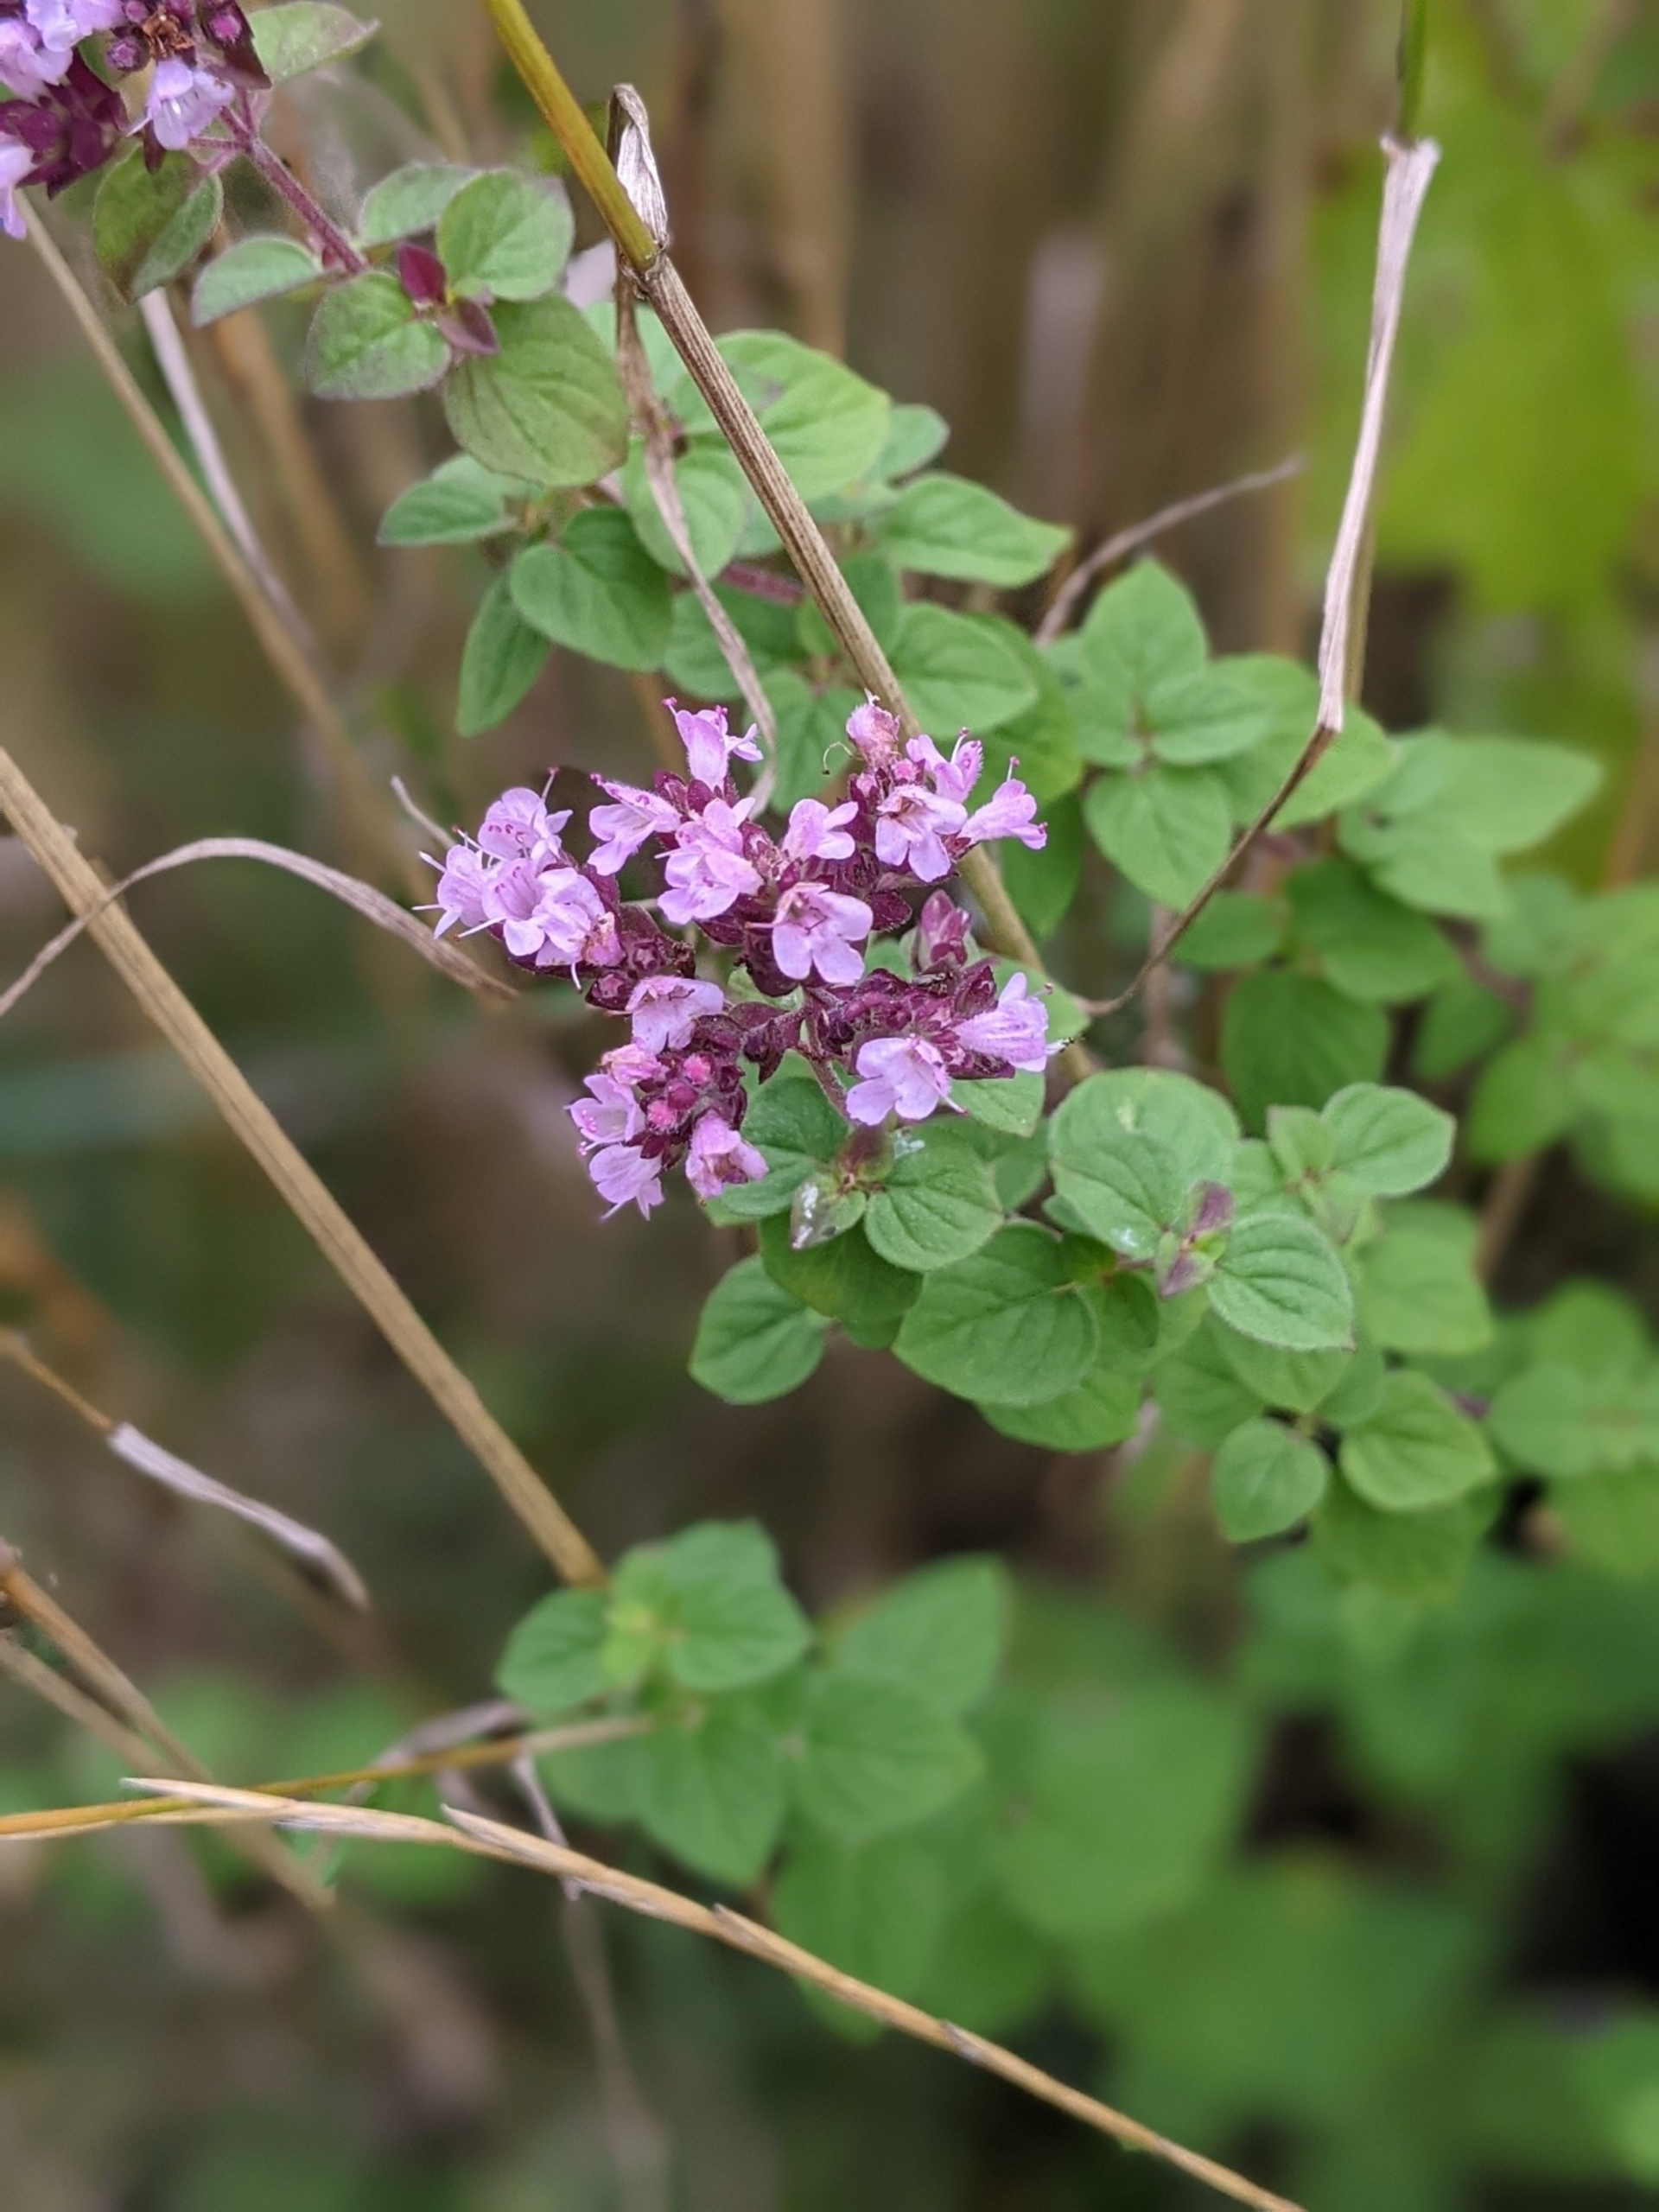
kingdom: Plantae
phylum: Tracheophyta
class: Magnoliopsida
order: Lamiales
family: Lamiaceae
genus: Origanum
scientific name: Origanum vulgare
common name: Merian
